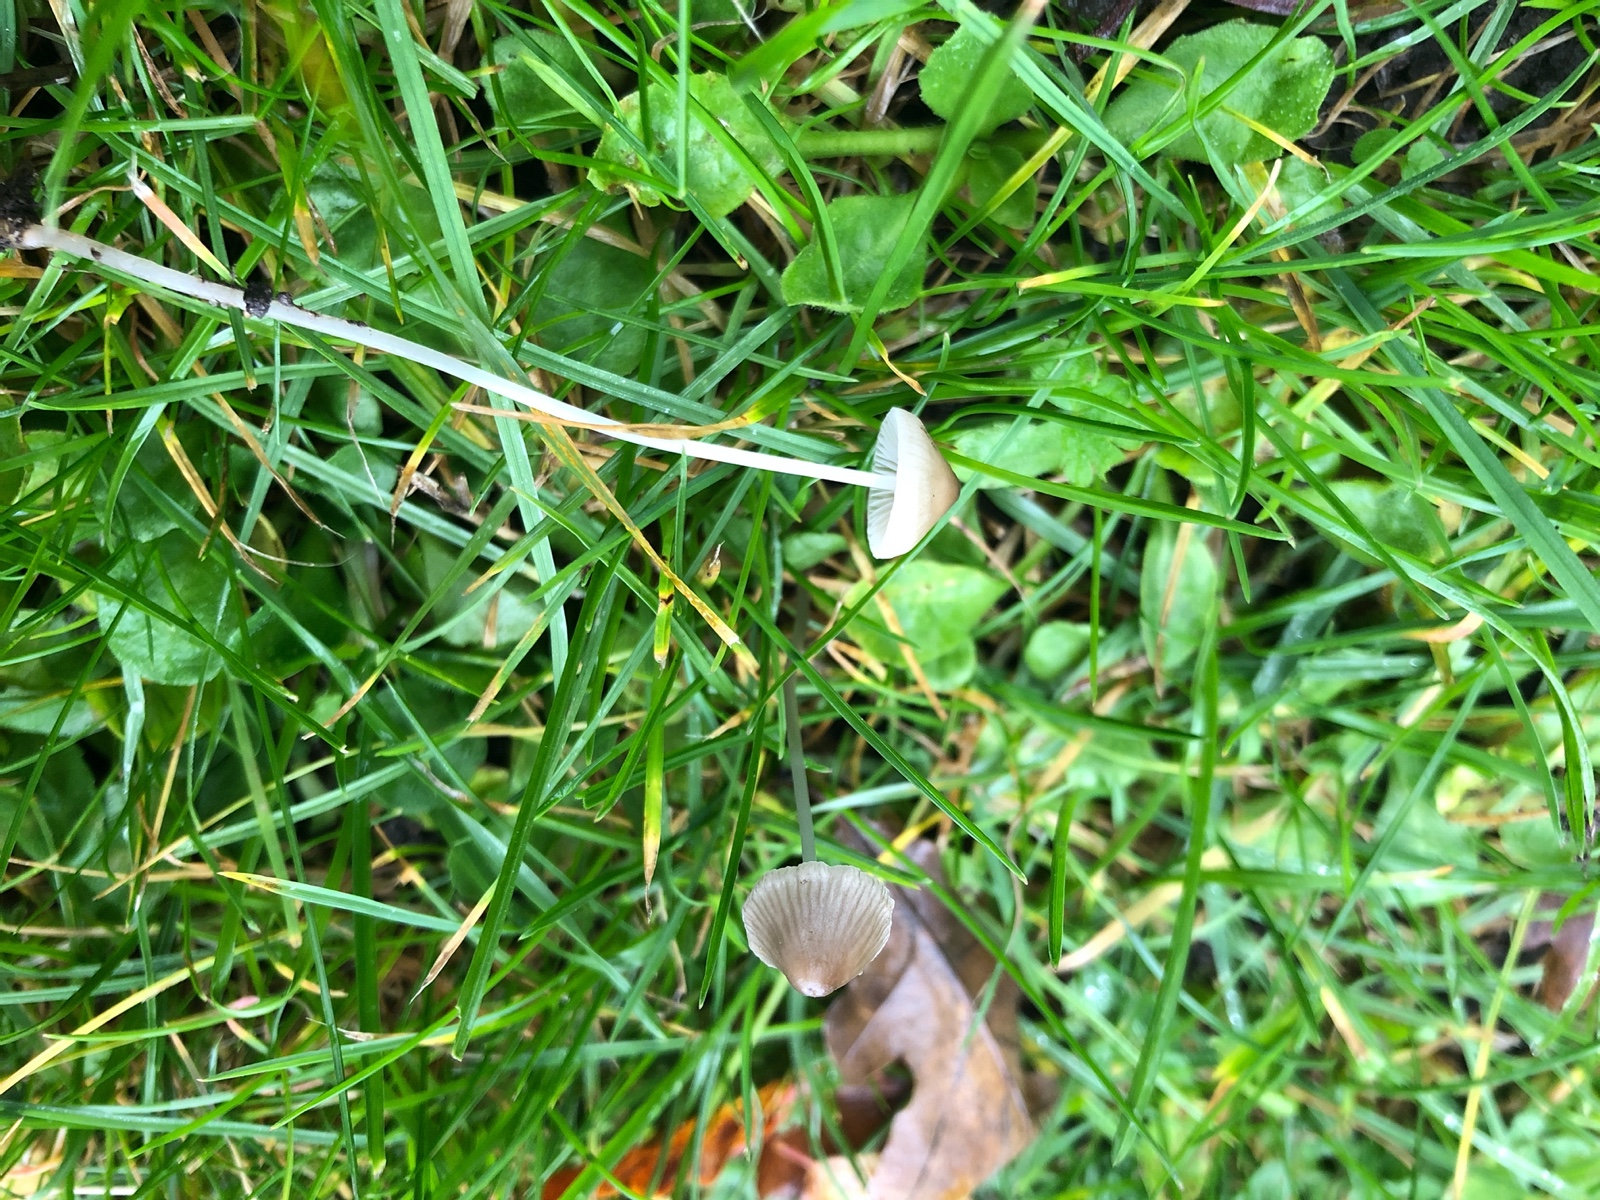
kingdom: Fungi
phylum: Basidiomycota
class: Agaricomycetes
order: Agaricales
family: Mycenaceae
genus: Mycena
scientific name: Mycena
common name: huesvamp
